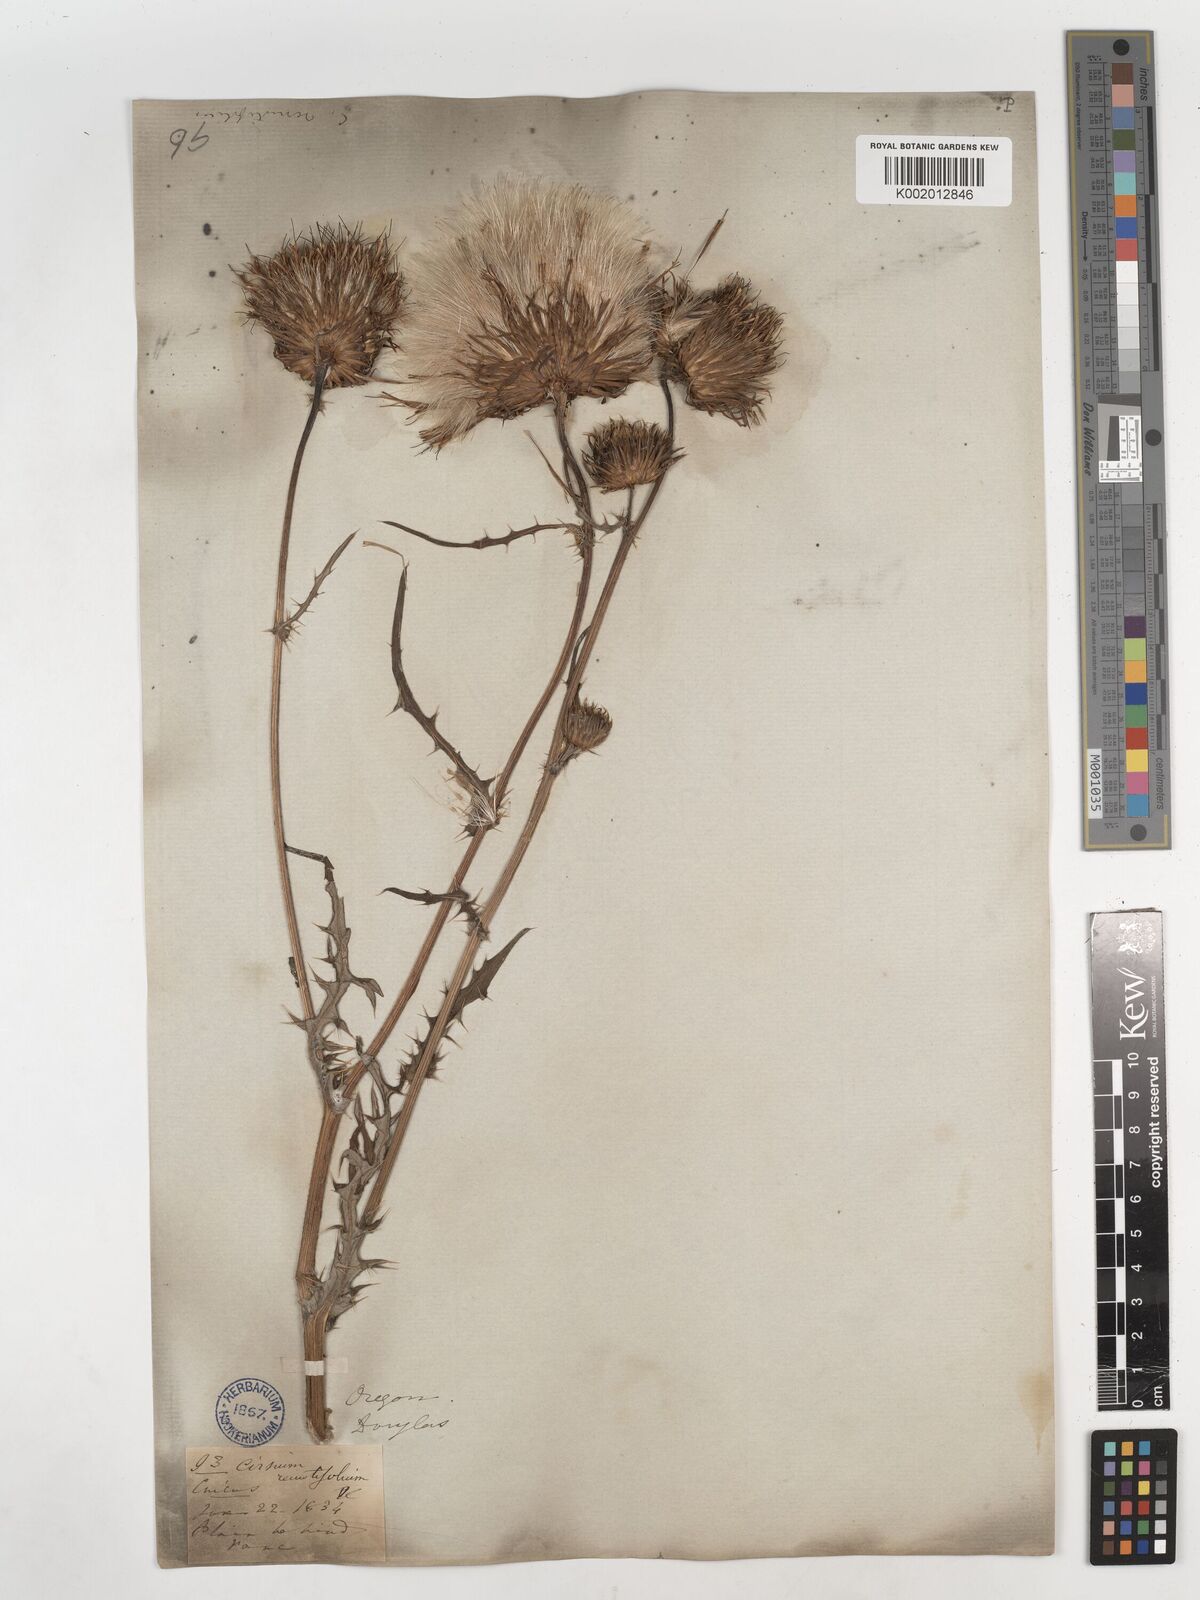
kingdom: Plantae
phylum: Tracheophyta
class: Magnoliopsida
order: Asterales
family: Asteraceae
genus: Cirsium
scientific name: Cirsium remotifolium
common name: Remote-leaf thistle
